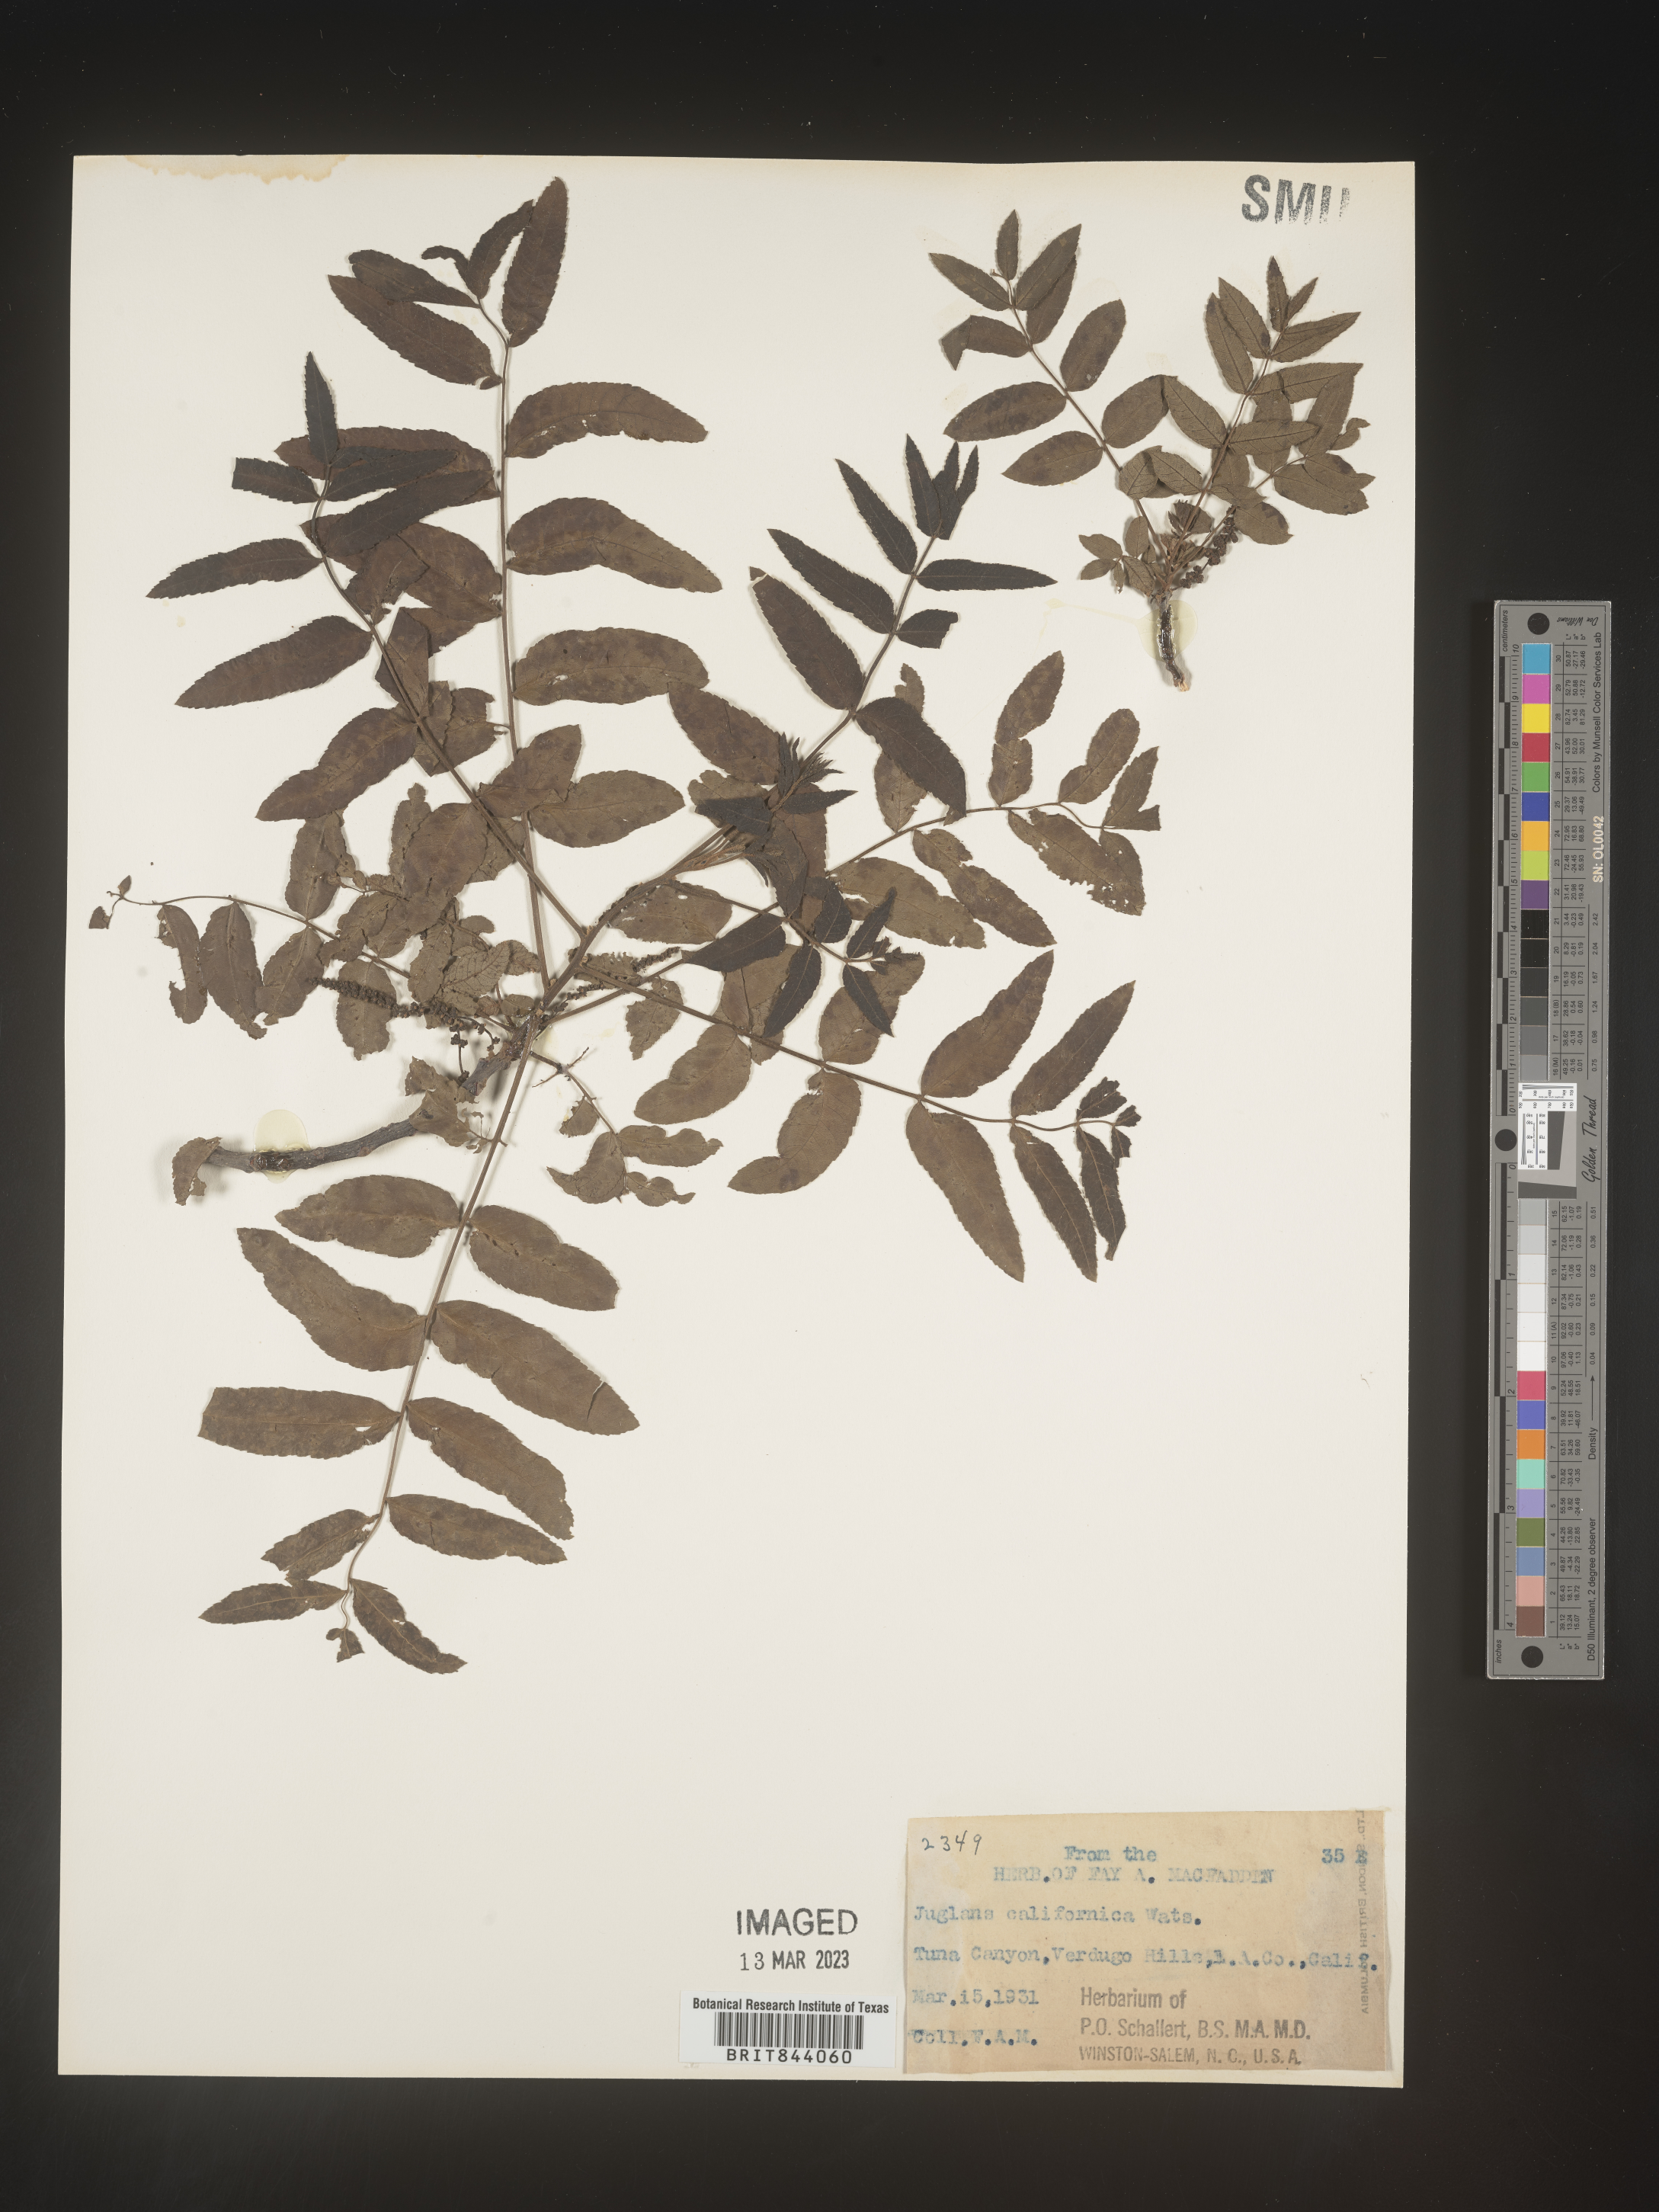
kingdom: Plantae
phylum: Tracheophyta
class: Magnoliopsida
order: Fagales
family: Juglandaceae
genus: Juglans
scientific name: Juglans californica
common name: Southern california black walnut
